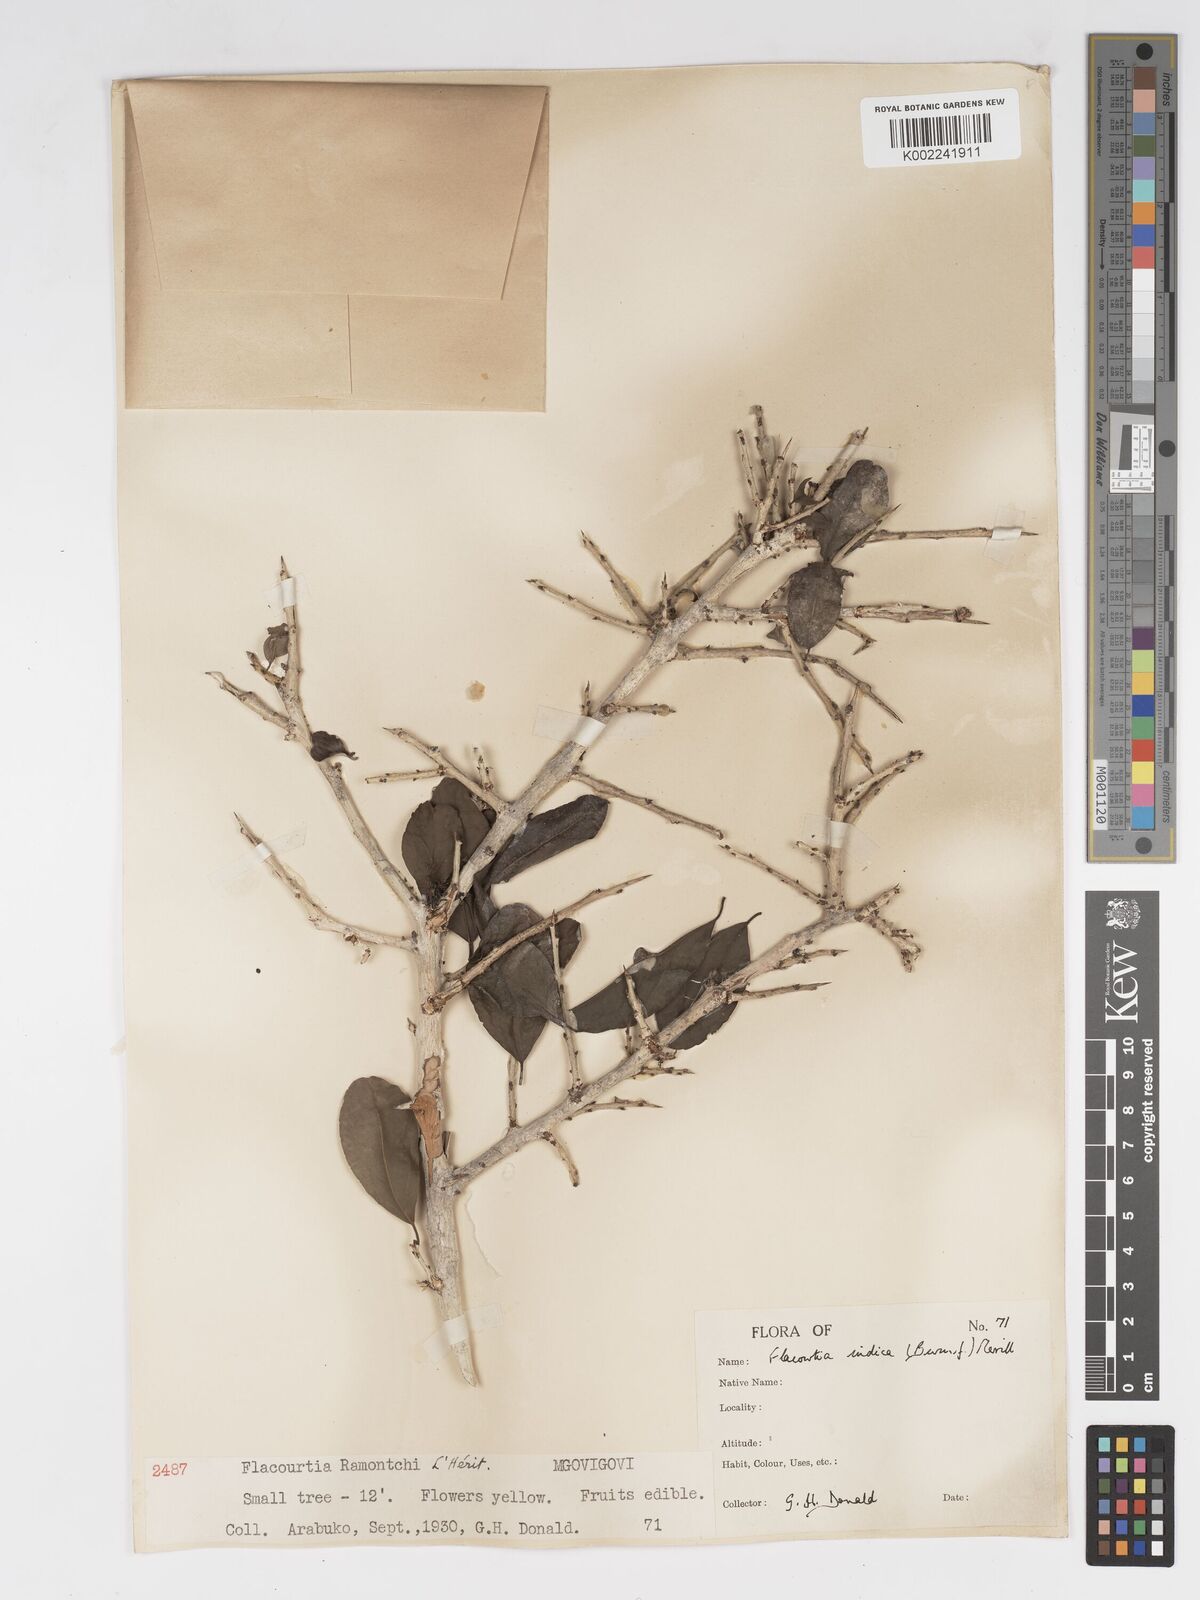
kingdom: Plantae
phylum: Tracheophyta
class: Magnoliopsida
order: Malpighiales
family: Salicaceae
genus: Flacourtia
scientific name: Flacourtia indica
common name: Governor's plum
